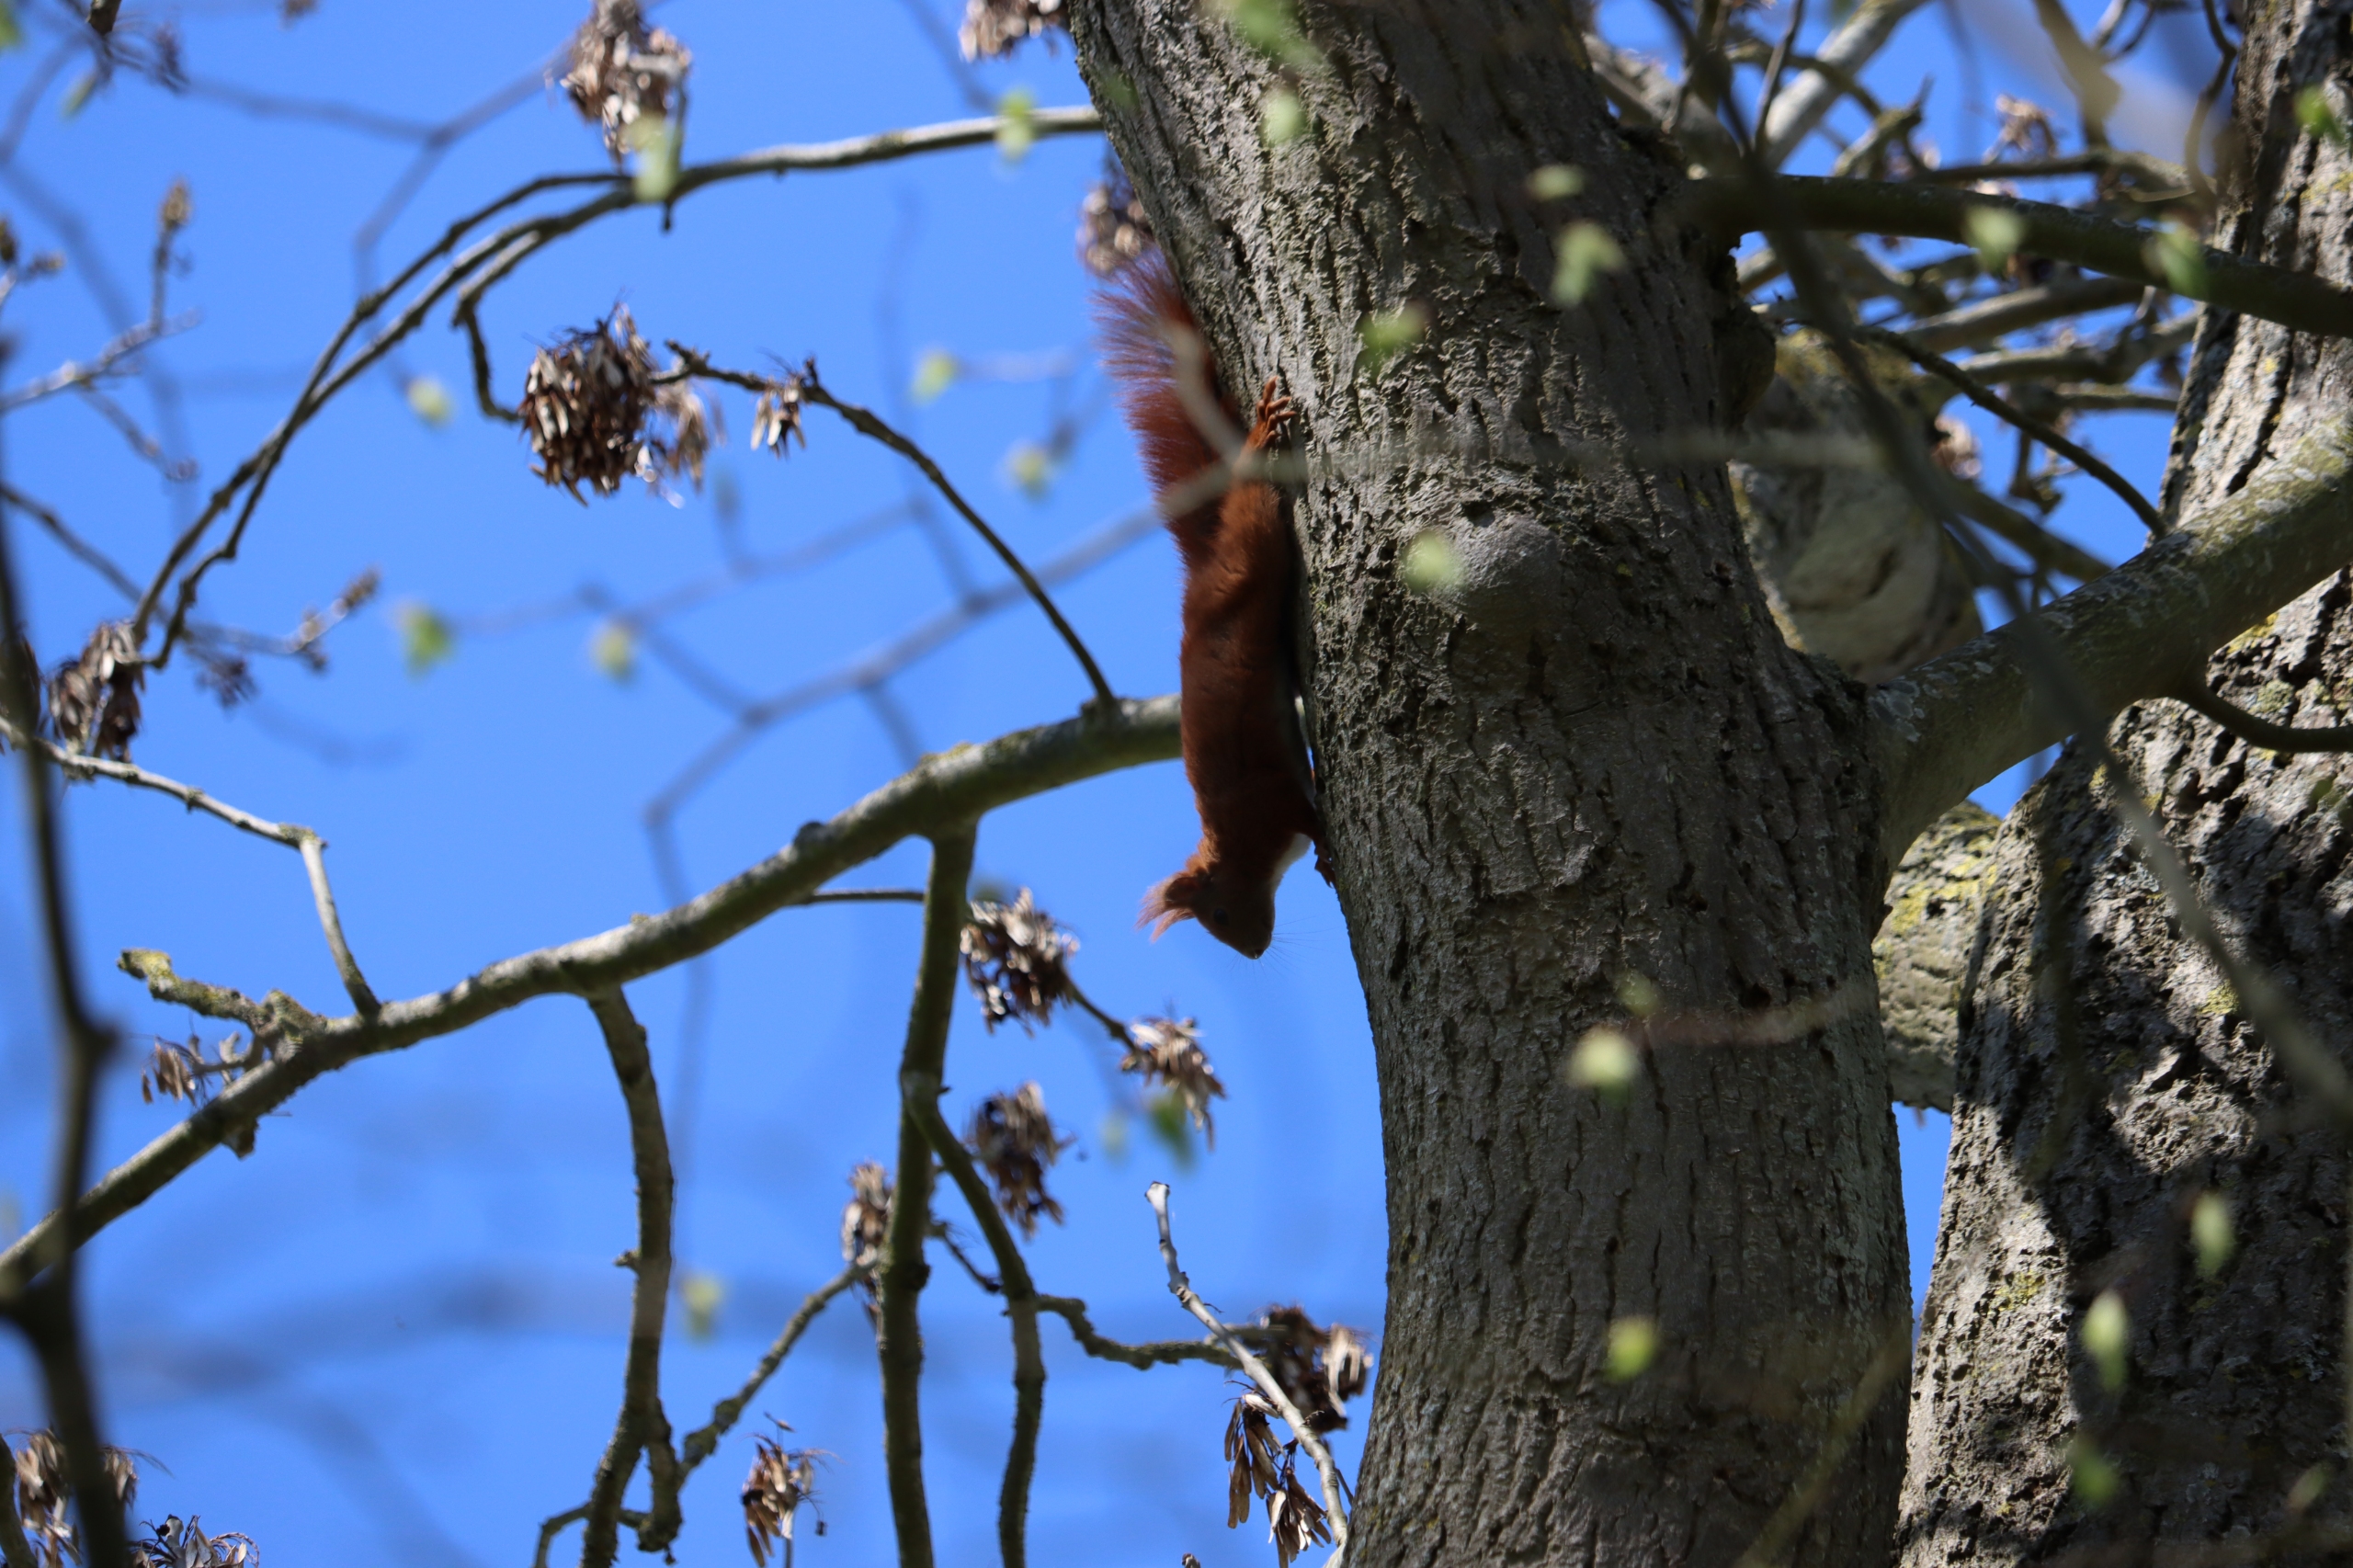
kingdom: Animalia
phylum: Chordata
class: Mammalia
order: Rodentia
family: Sciuridae
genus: Sciurus
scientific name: Sciurus vulgaris
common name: Egern
